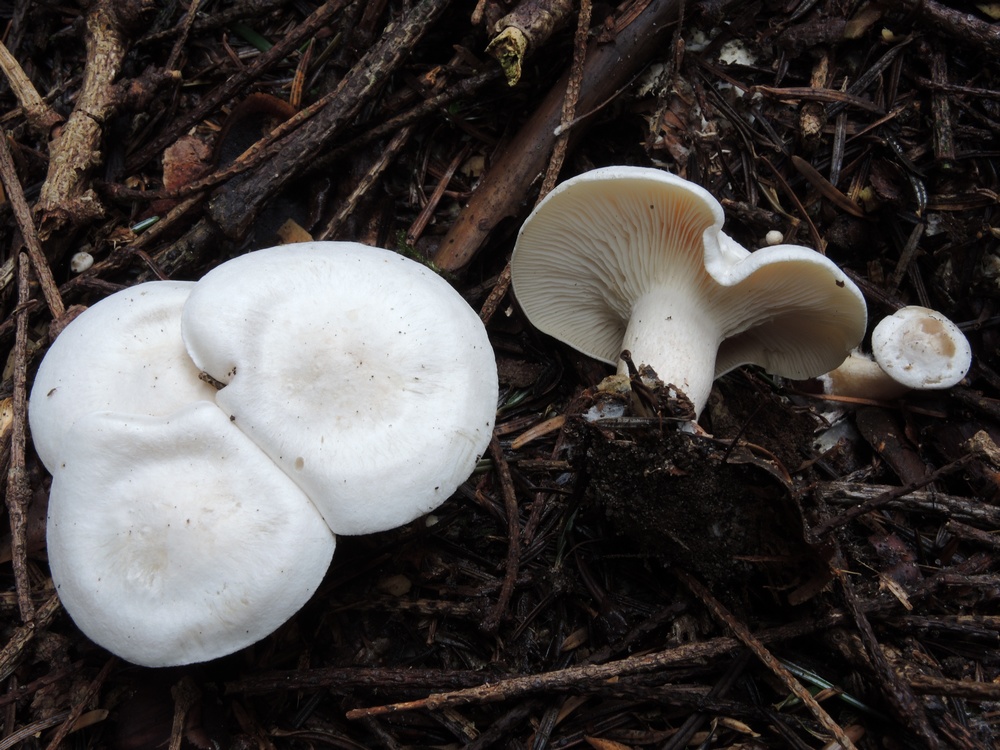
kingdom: Fungi
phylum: Basidiomycota
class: Agaricomycetes
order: Agaricales
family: Tricholomataceae
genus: Clitocybe
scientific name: Clitocybe phyllophila
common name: løv-tragthat
